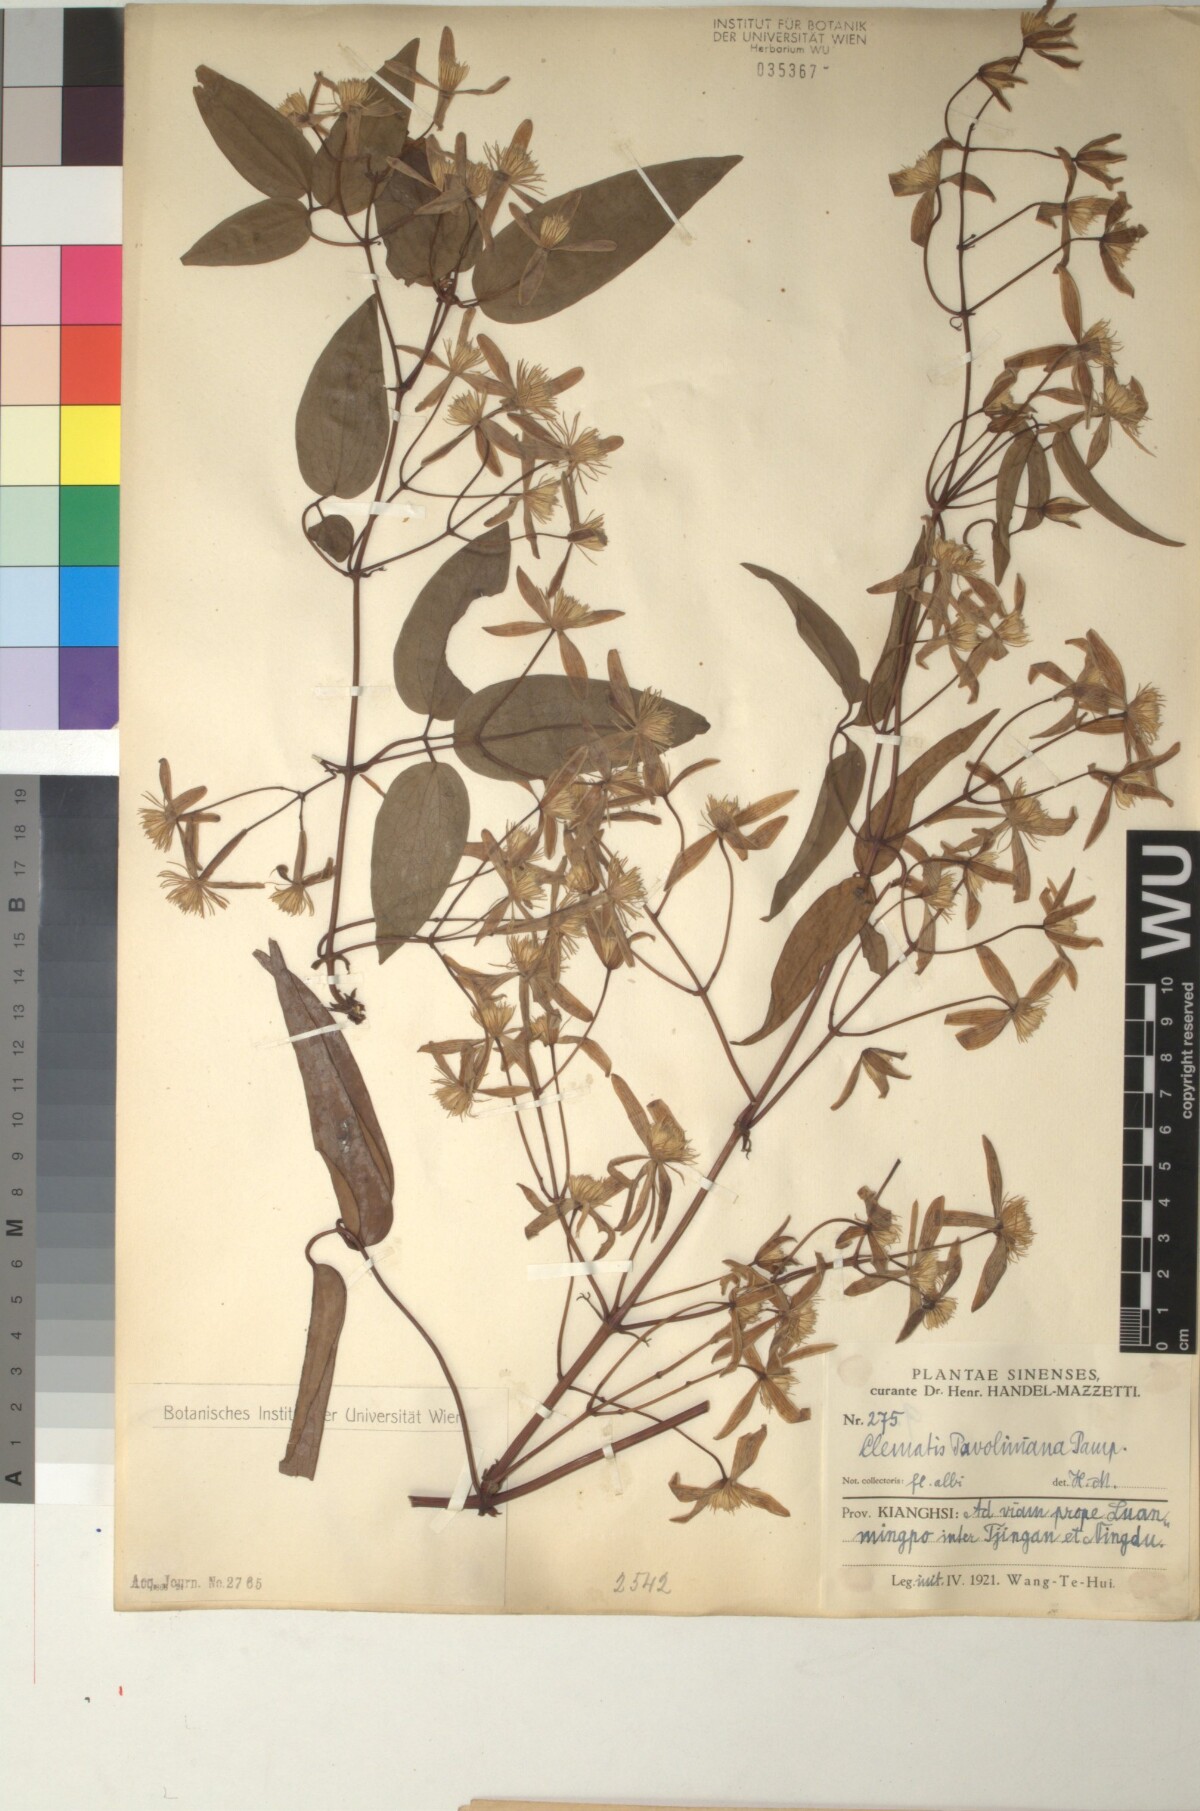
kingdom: Plantae
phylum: Tracheophyta
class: Magnoliopsida
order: Ranunculales
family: Ranunculaceae
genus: Clematis
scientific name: Clematis finetiana
